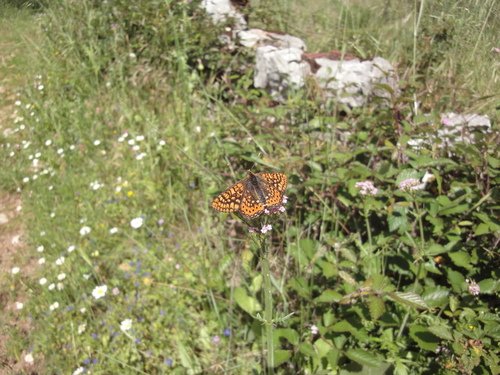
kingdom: Animalia
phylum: Arthropoda
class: Insecta
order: Lepidoptera
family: Nymphalidae
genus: Euphydryas
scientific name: Euphydryas aurinia
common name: Marsh fritillary
